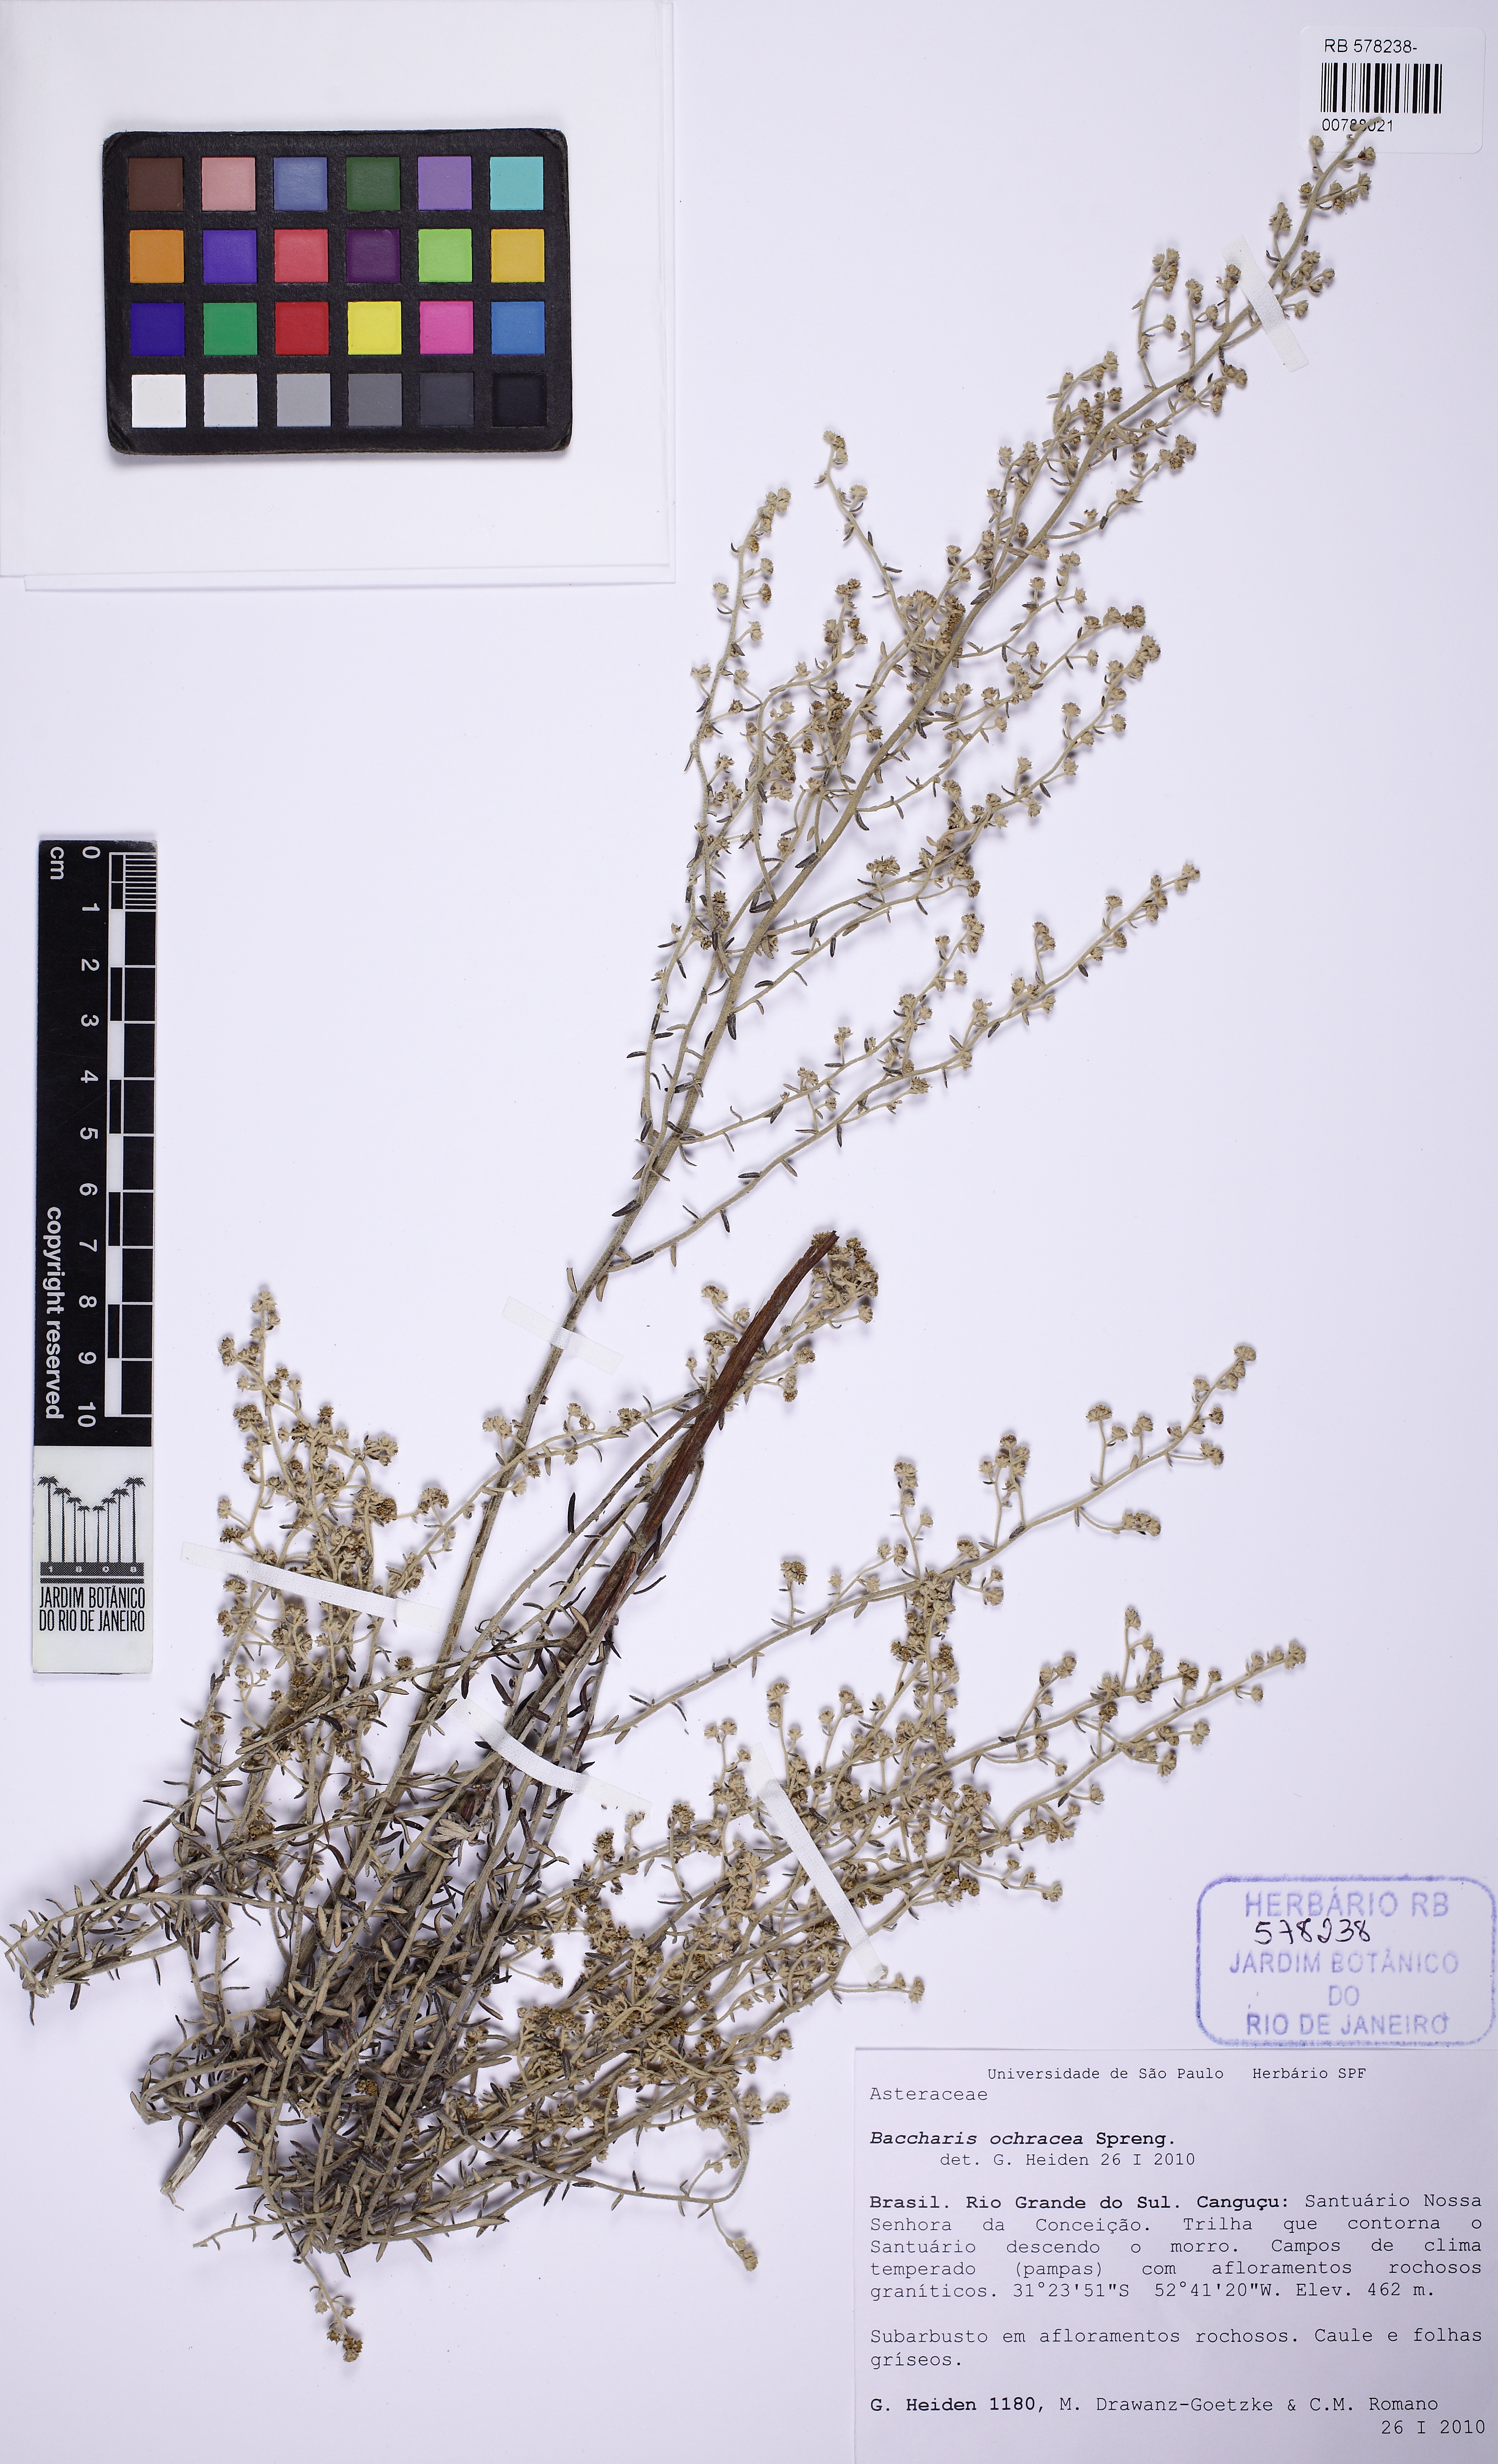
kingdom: Plantae
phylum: Tracheophyta
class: Magnoliopsida
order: Asterales
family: Asteraceae
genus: Baccharis
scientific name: Baccharis ochracea
